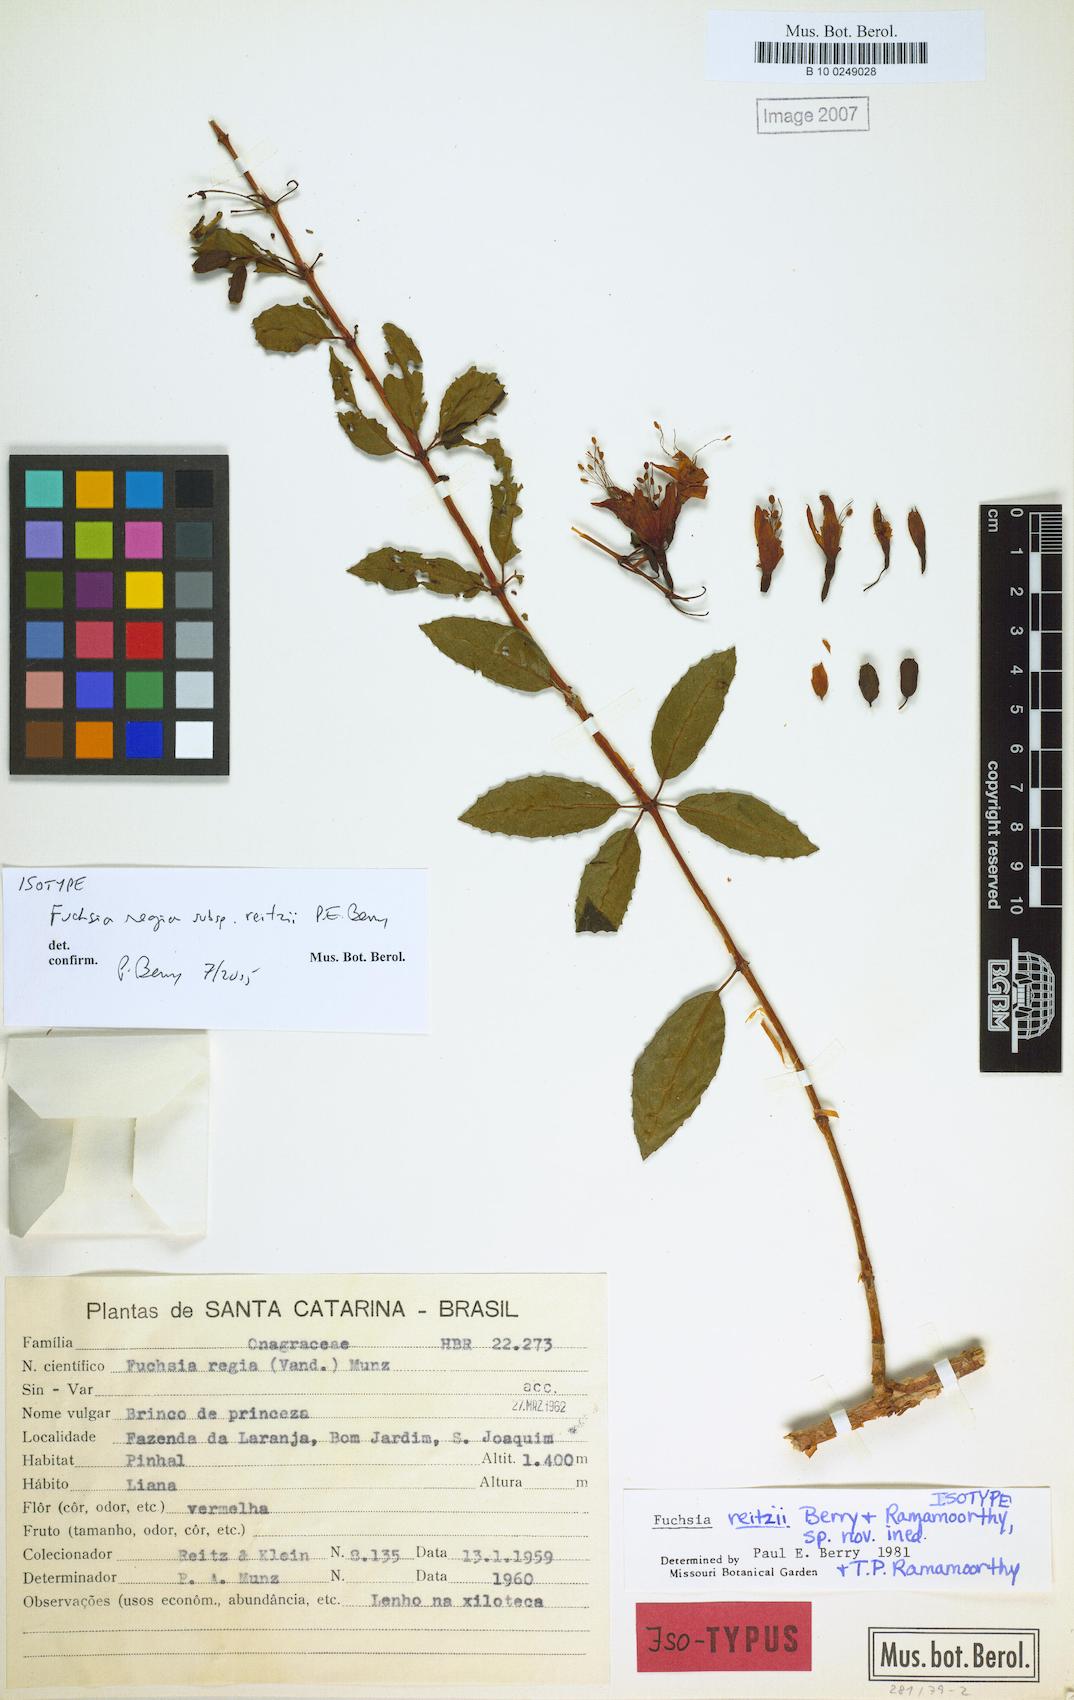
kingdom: Plantae
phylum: Tracheophyta
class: Magnoliopsida
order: Myrtales
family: Onagraceae
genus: Fuchsia
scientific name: Fuchsia regia
